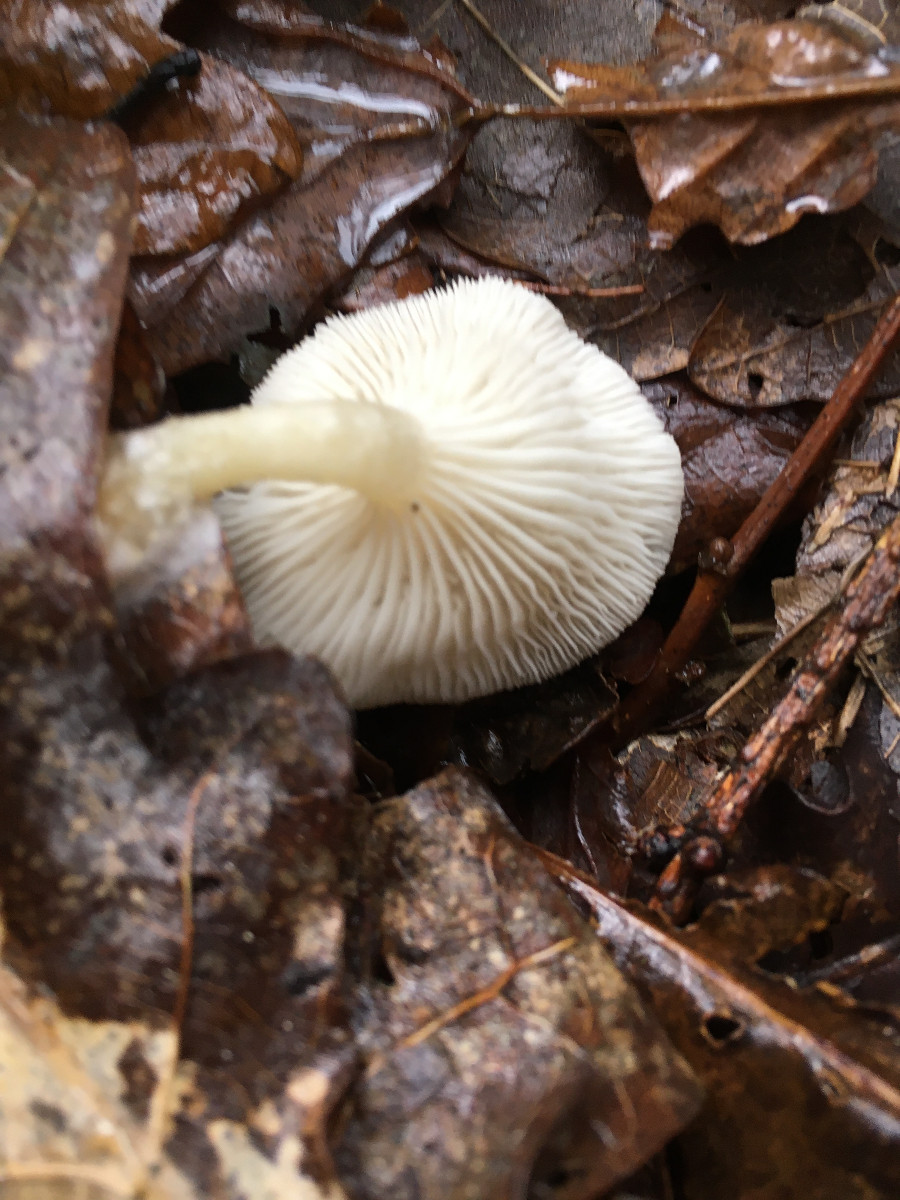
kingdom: Fungi
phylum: Basidiomycota
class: Agaricomycetes
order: Agaricales
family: Tricholomataceae
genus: Clitocybe
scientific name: Clitocybe
